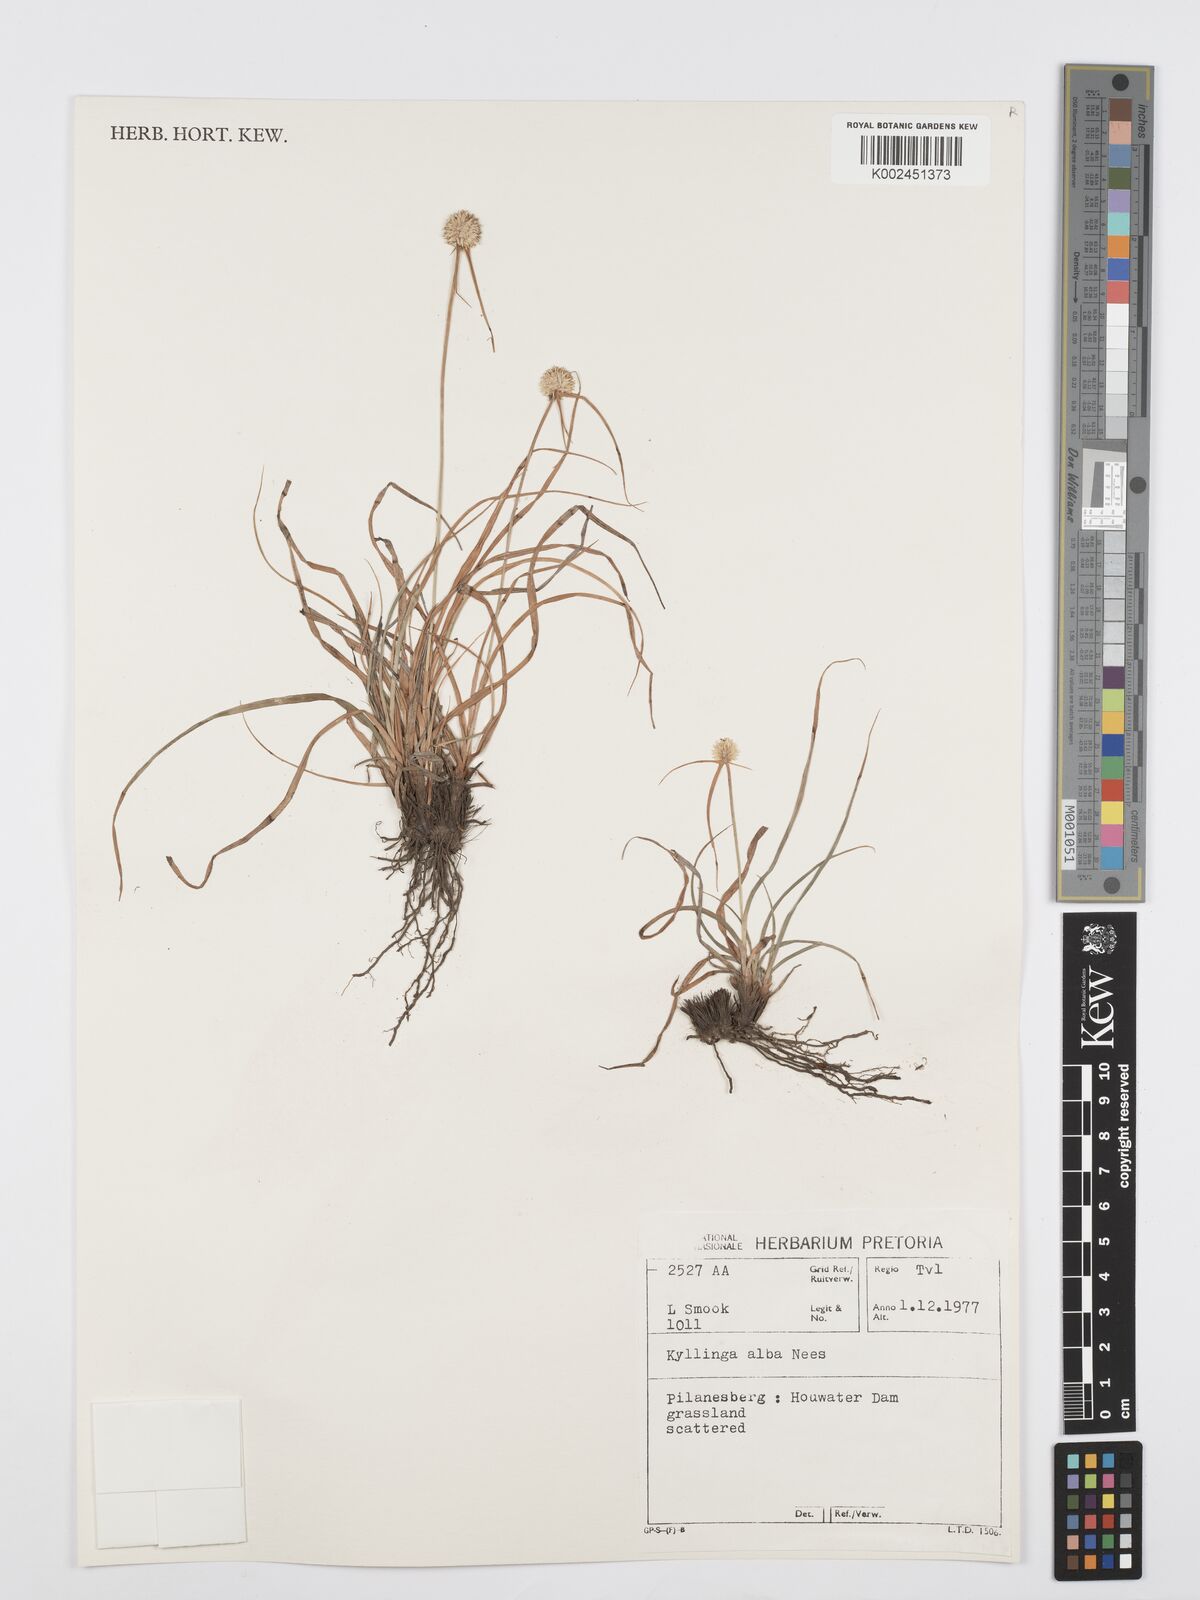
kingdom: Plantae
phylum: Tracheophyta
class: Liliopsida
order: Poales
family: Cyperaceae
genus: Cyperus
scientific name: Cyperus
